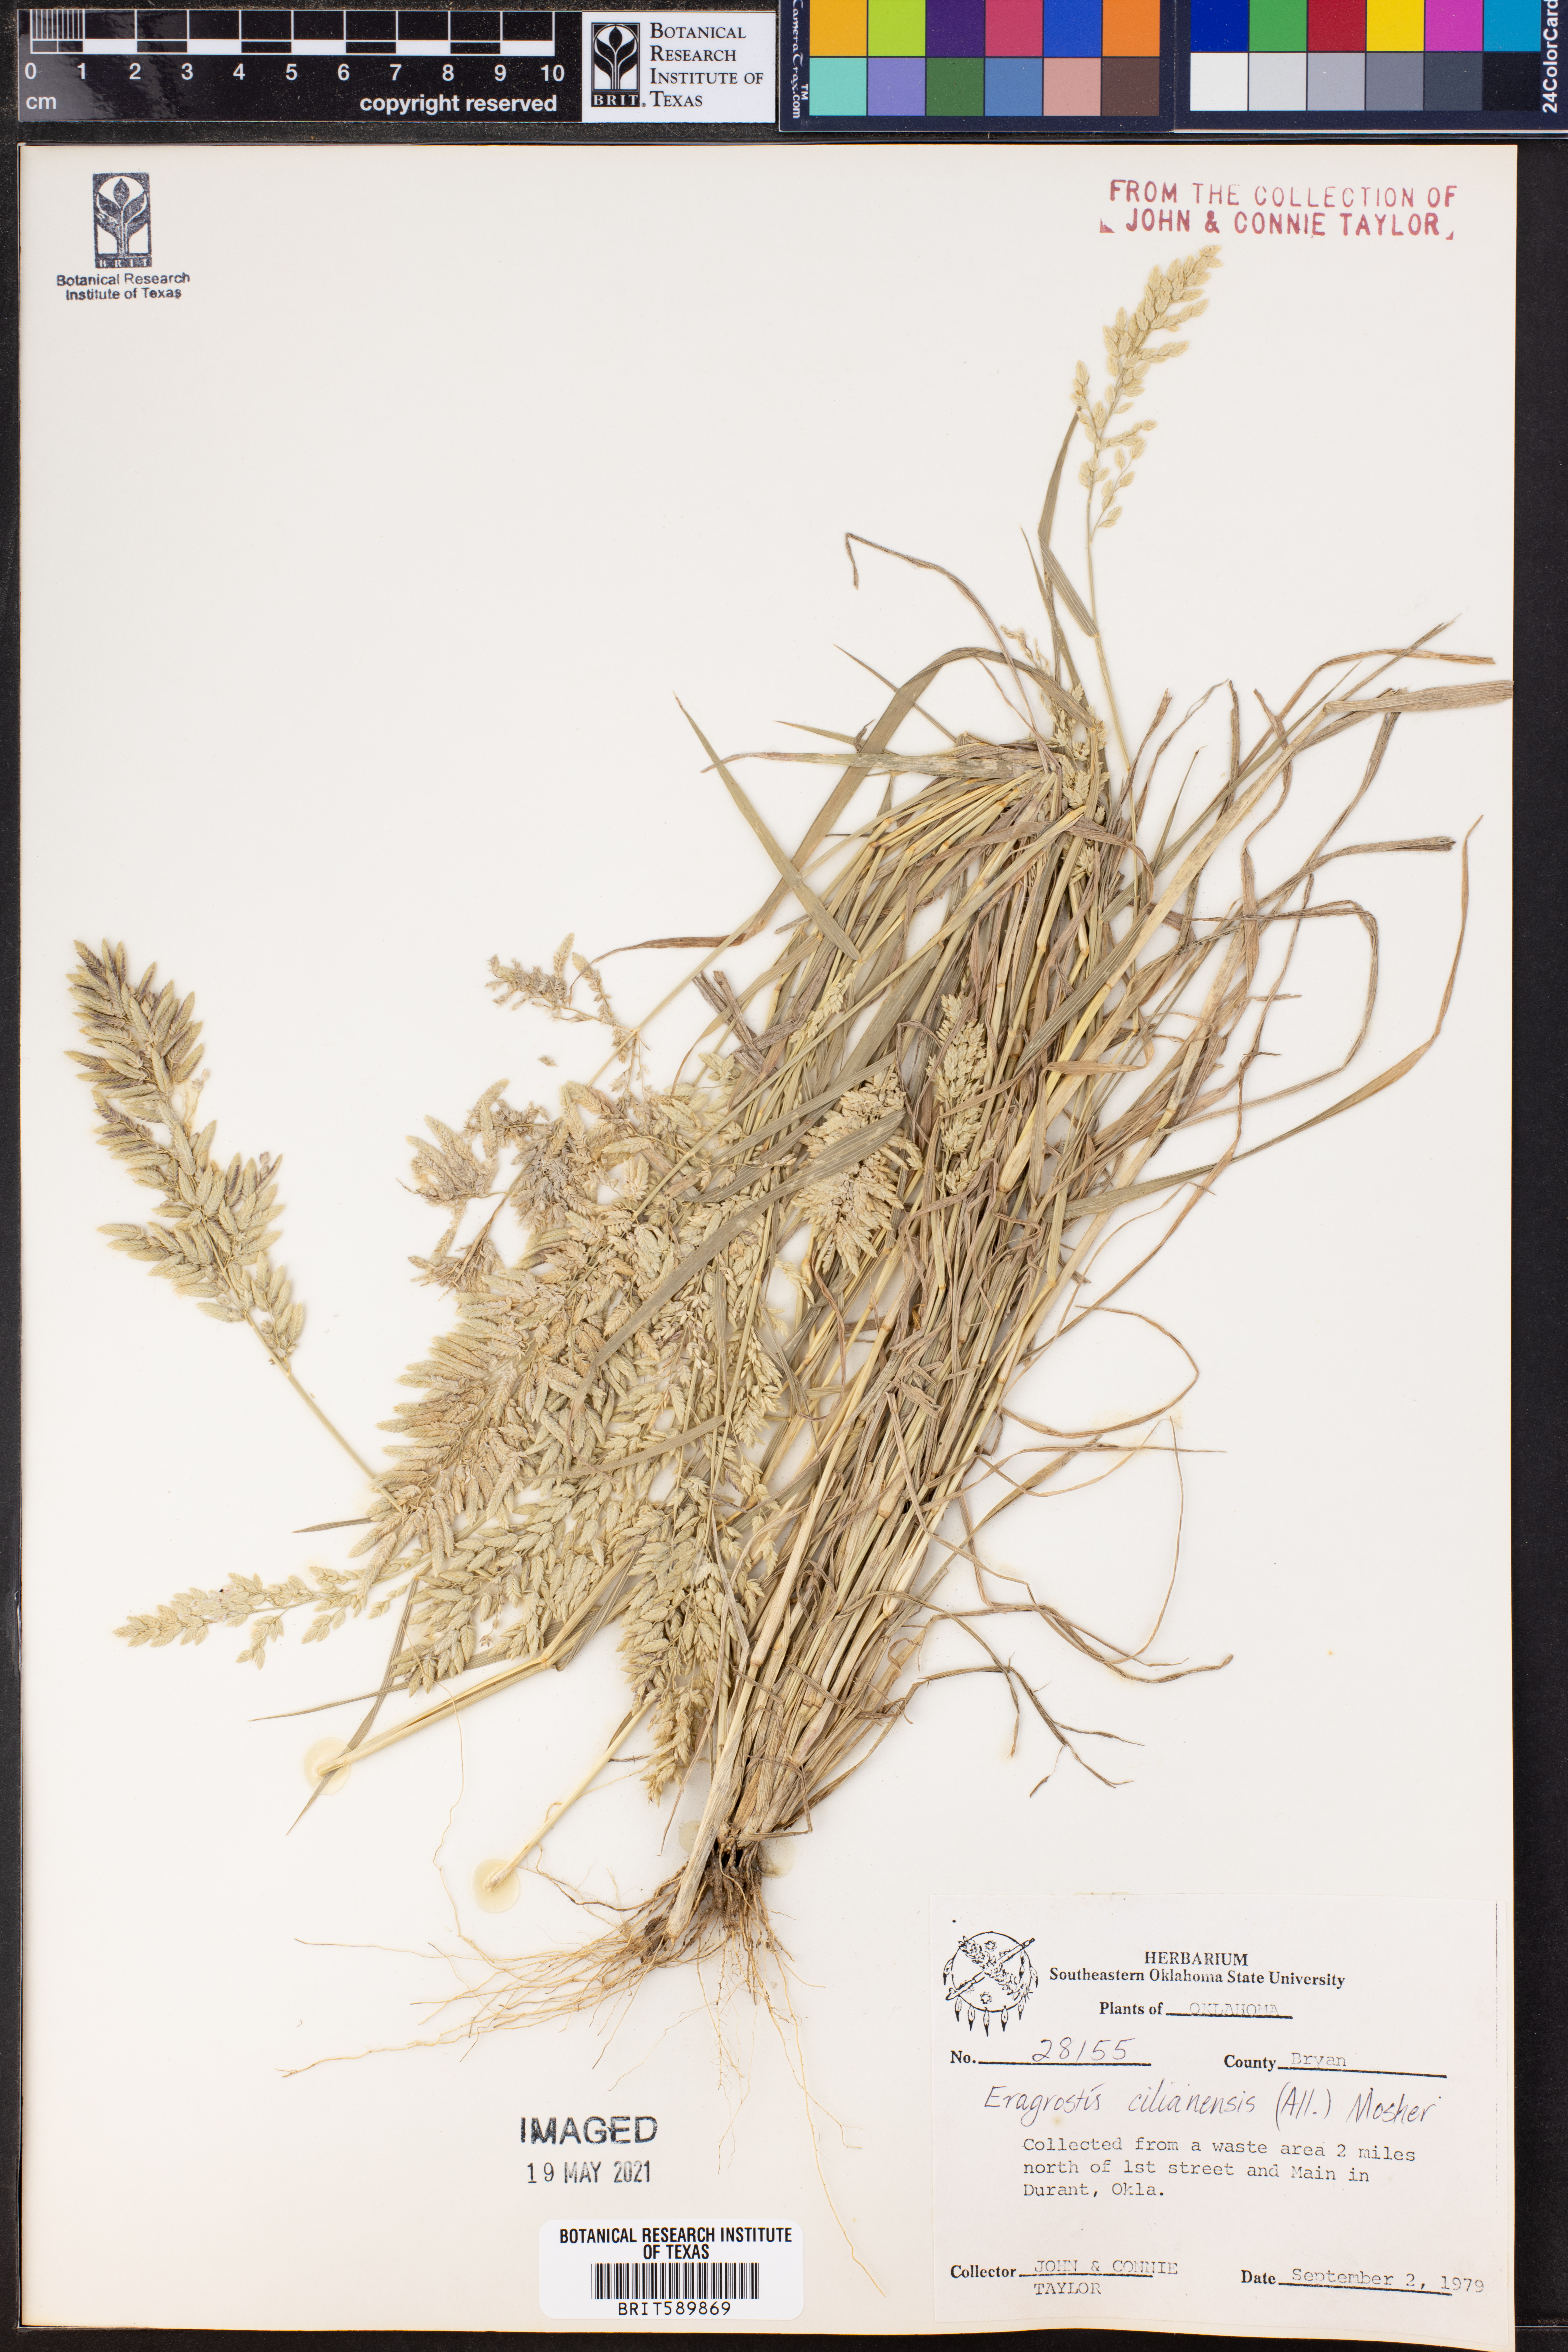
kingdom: Plantae
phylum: Tracheophyta
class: Liliopsida
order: Poales
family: Poaceae
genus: Eragrostis
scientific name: Eragrostis cilianensis
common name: Stinkgrass
